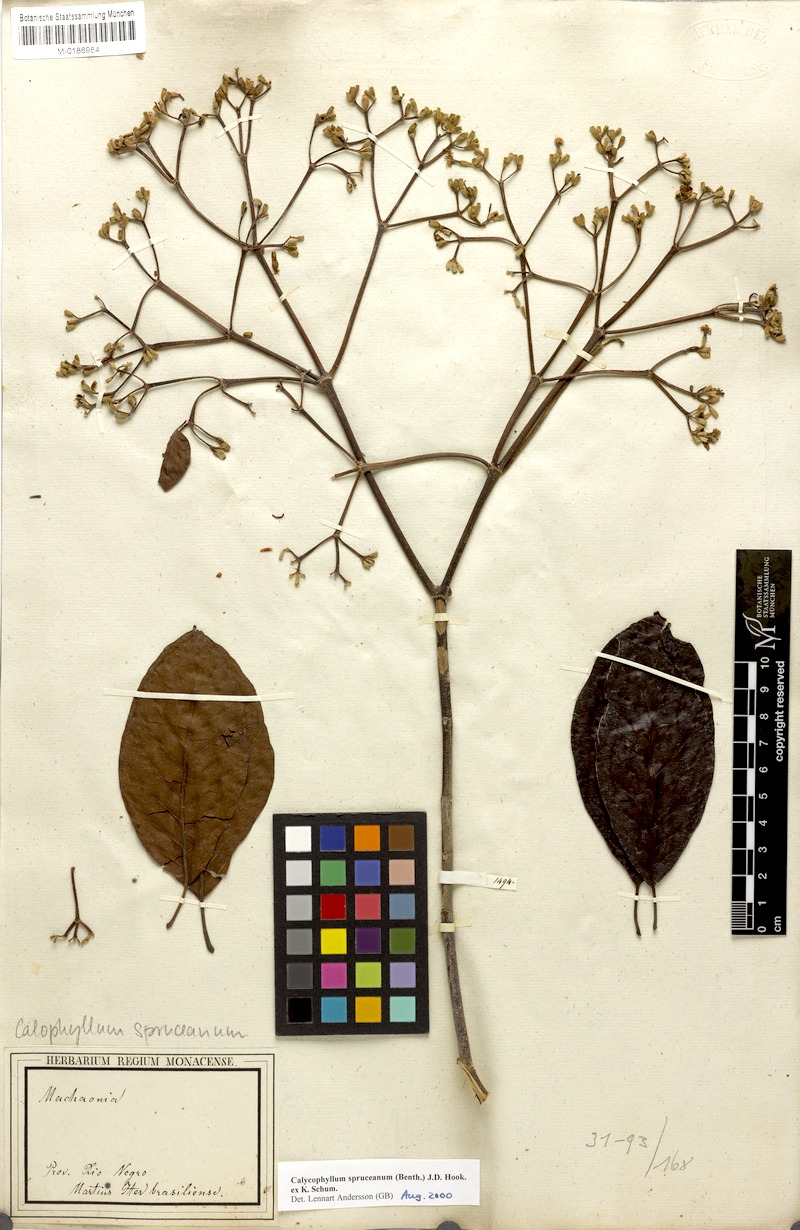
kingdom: Plantae
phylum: Tracheophyta
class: Magnoliopsida
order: Gentianales
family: Rubiaceae
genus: Calycophyllum
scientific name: Calycophyllum spruceanum
